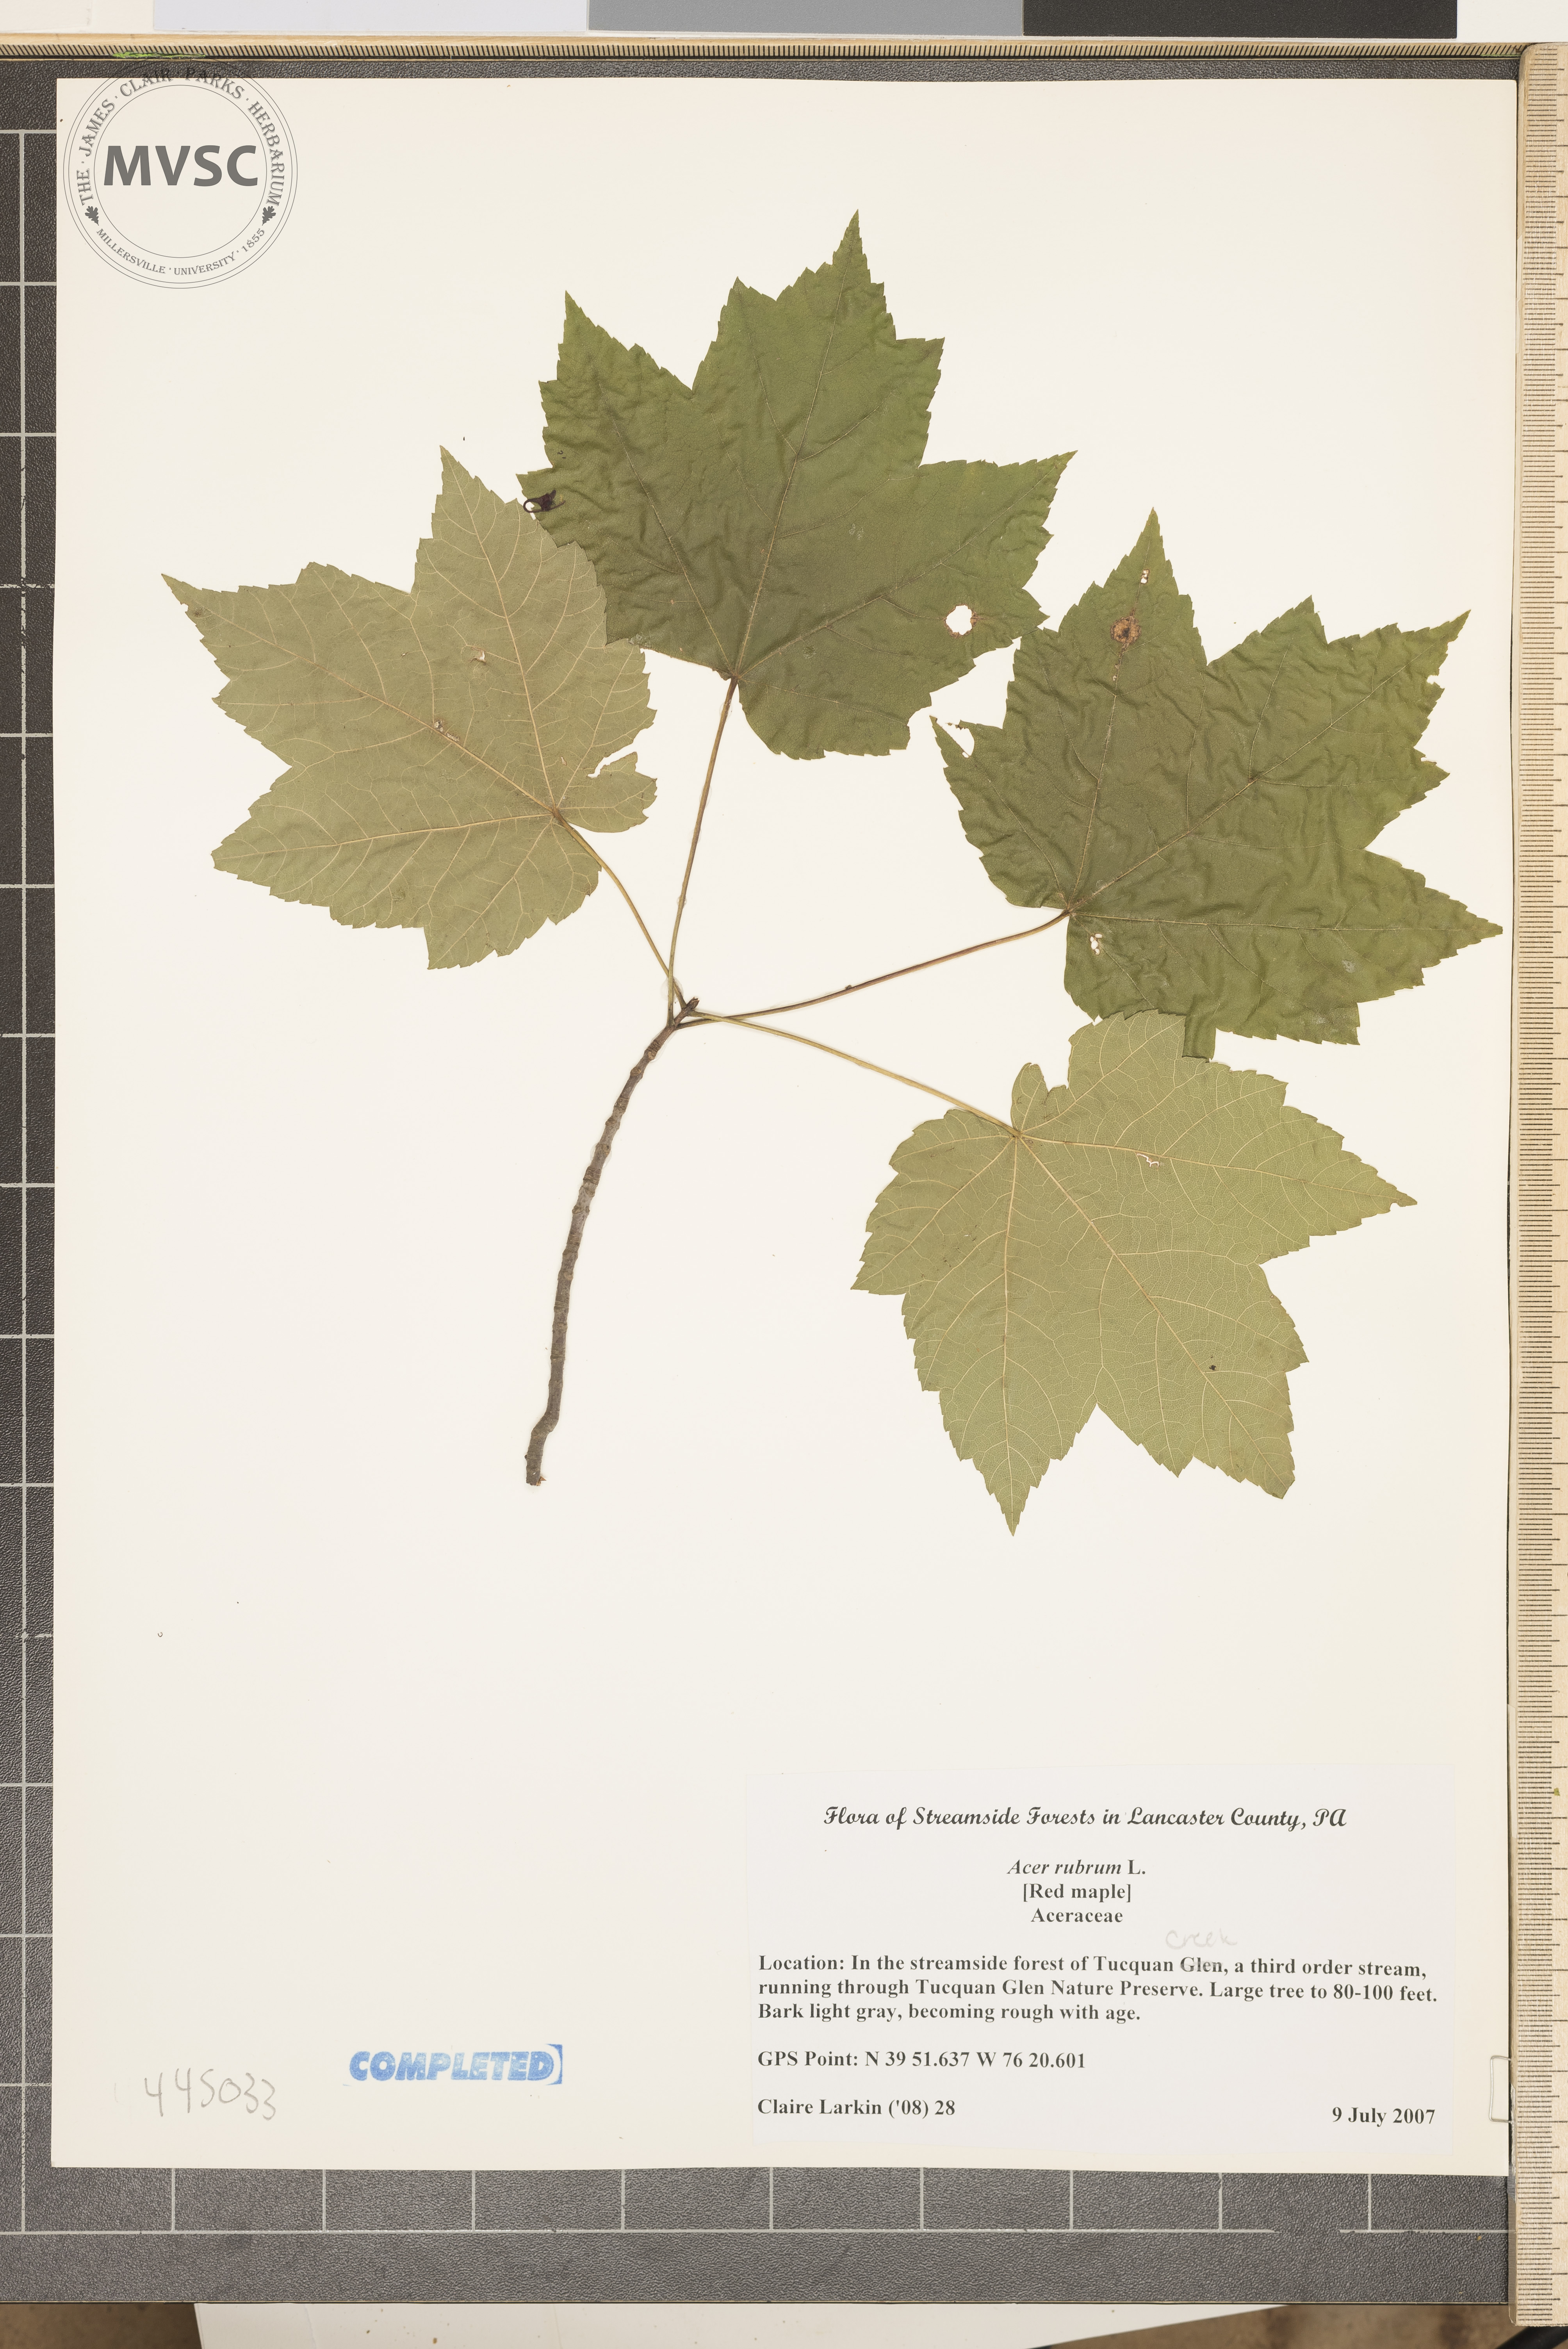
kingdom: Plantae
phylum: Tracheophyta
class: Magnoliopsida
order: Sapindales
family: Sapindaceae
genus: Acer
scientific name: Acer rubrum
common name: Red maple
